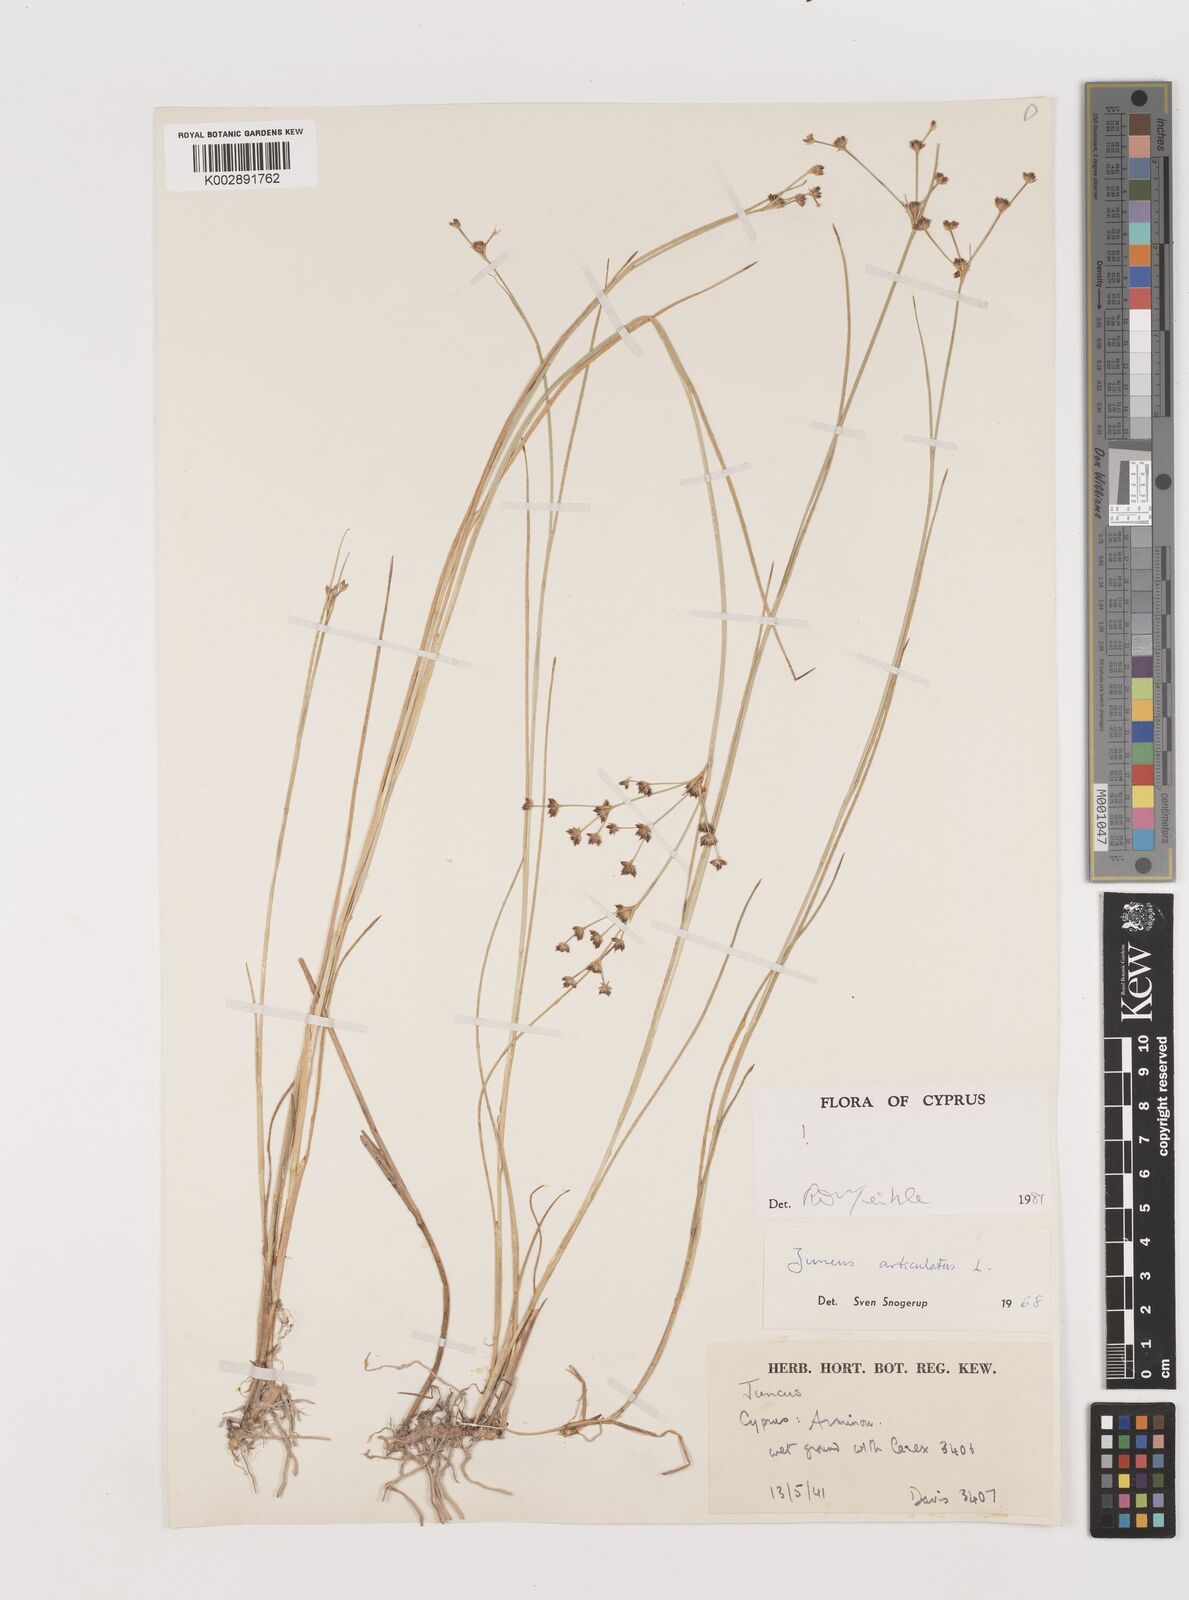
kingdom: Plantae
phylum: Tracheophyta
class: Liliopsida
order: Poales
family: Juncaceae
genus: Juncus
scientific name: Juncus articulatus
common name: Jointed rush
